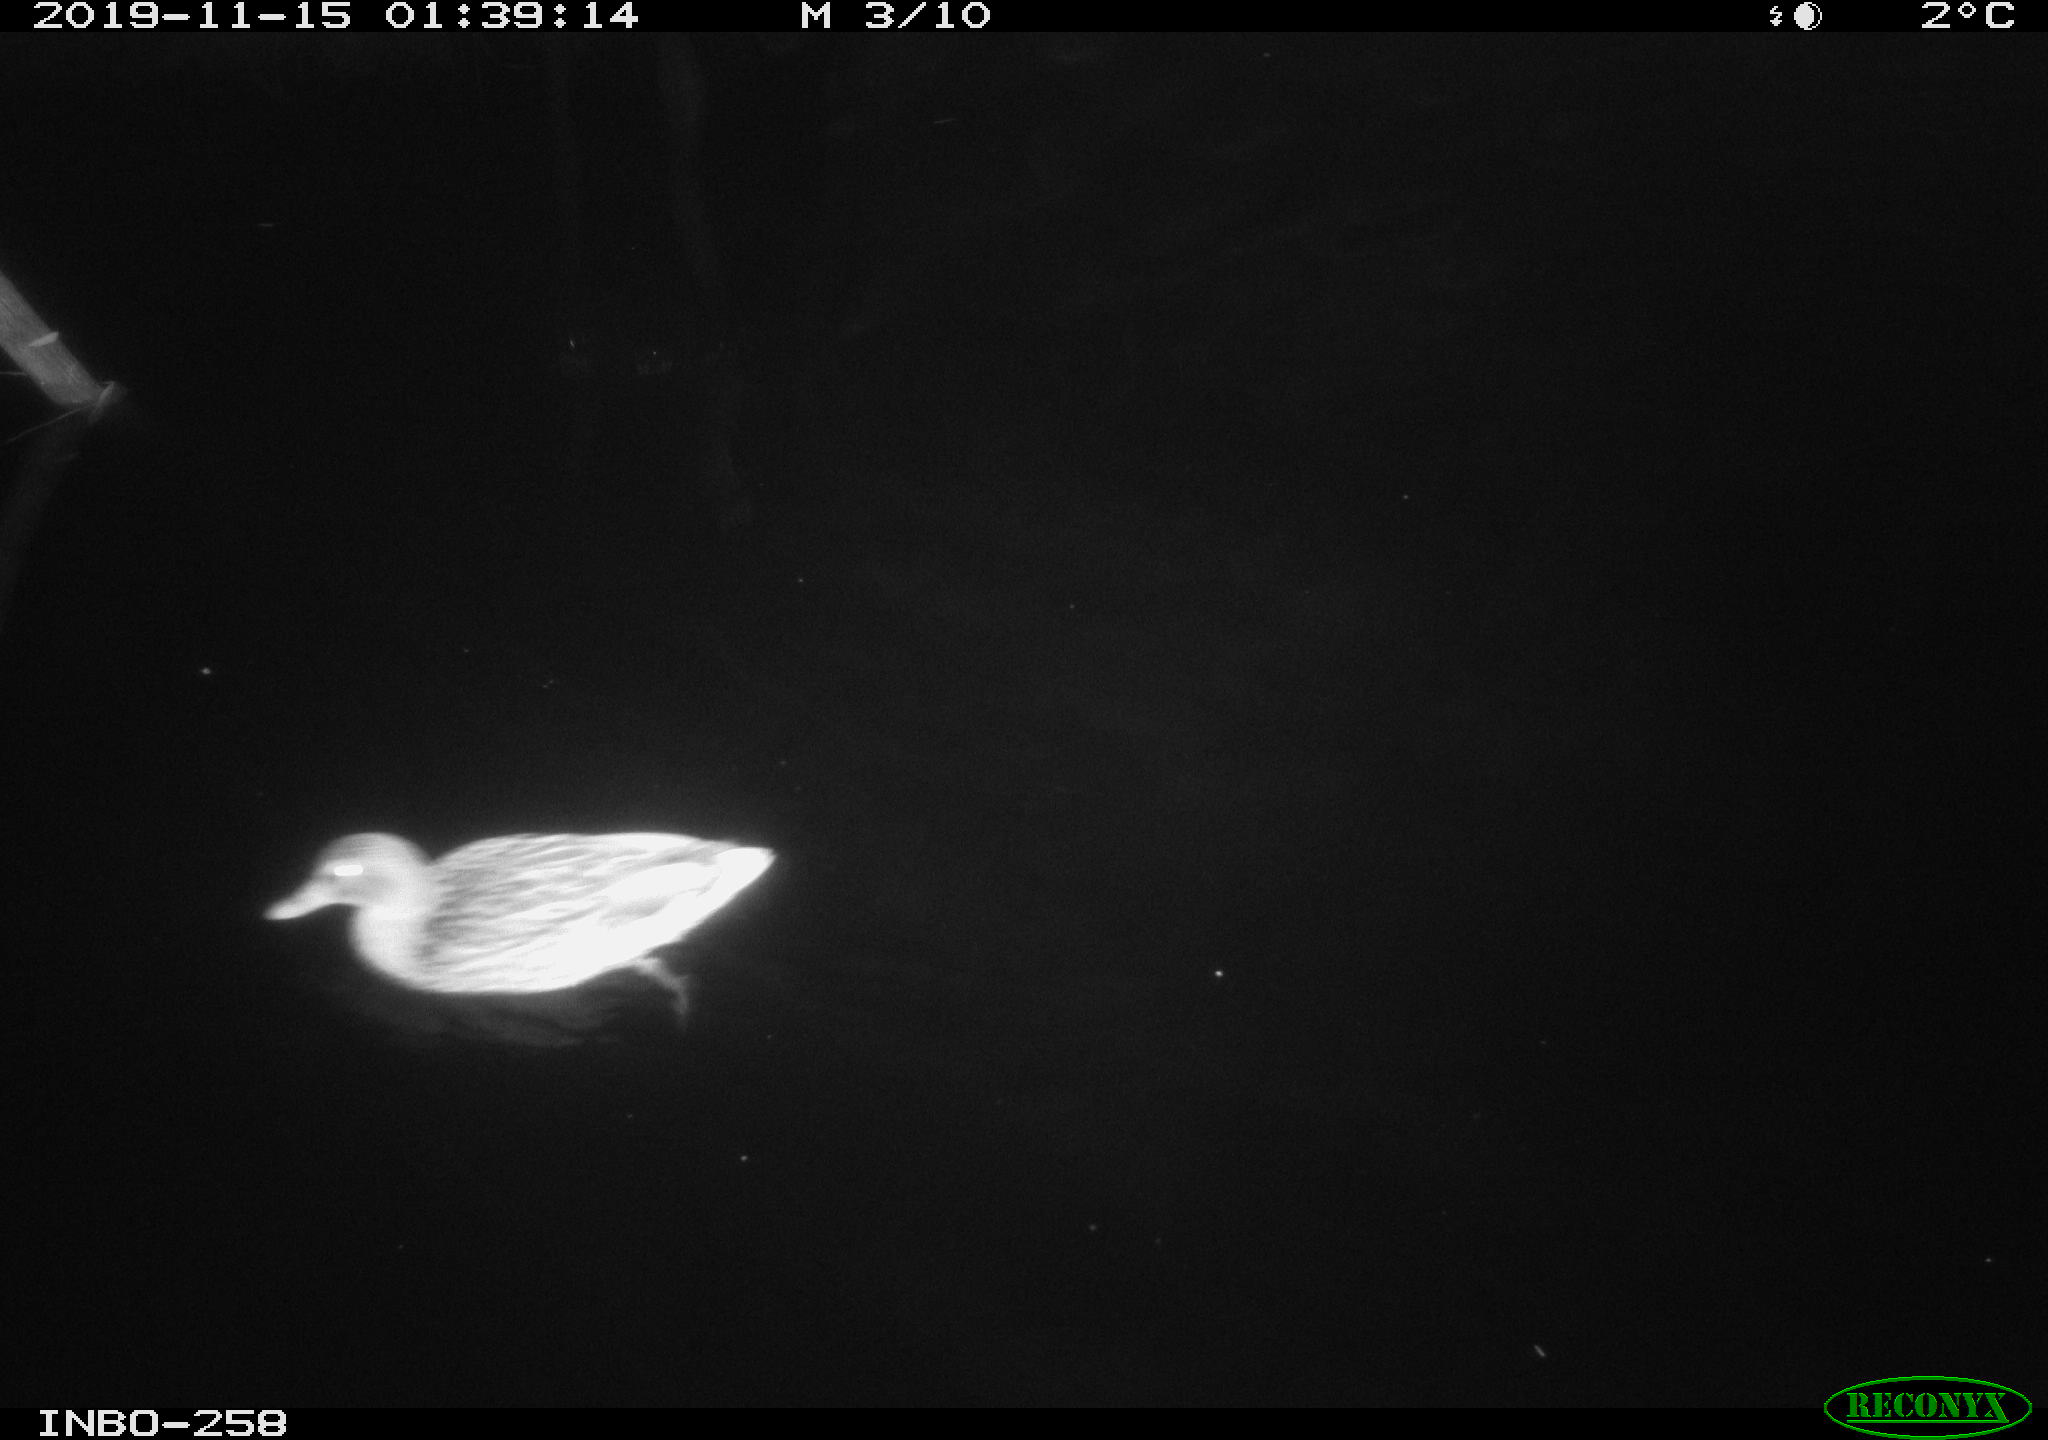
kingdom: Animalia
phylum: Chordata
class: Aves
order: Anseriformes
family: Anatidae
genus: Anas
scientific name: Anas platyrhynchos
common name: Mallard
